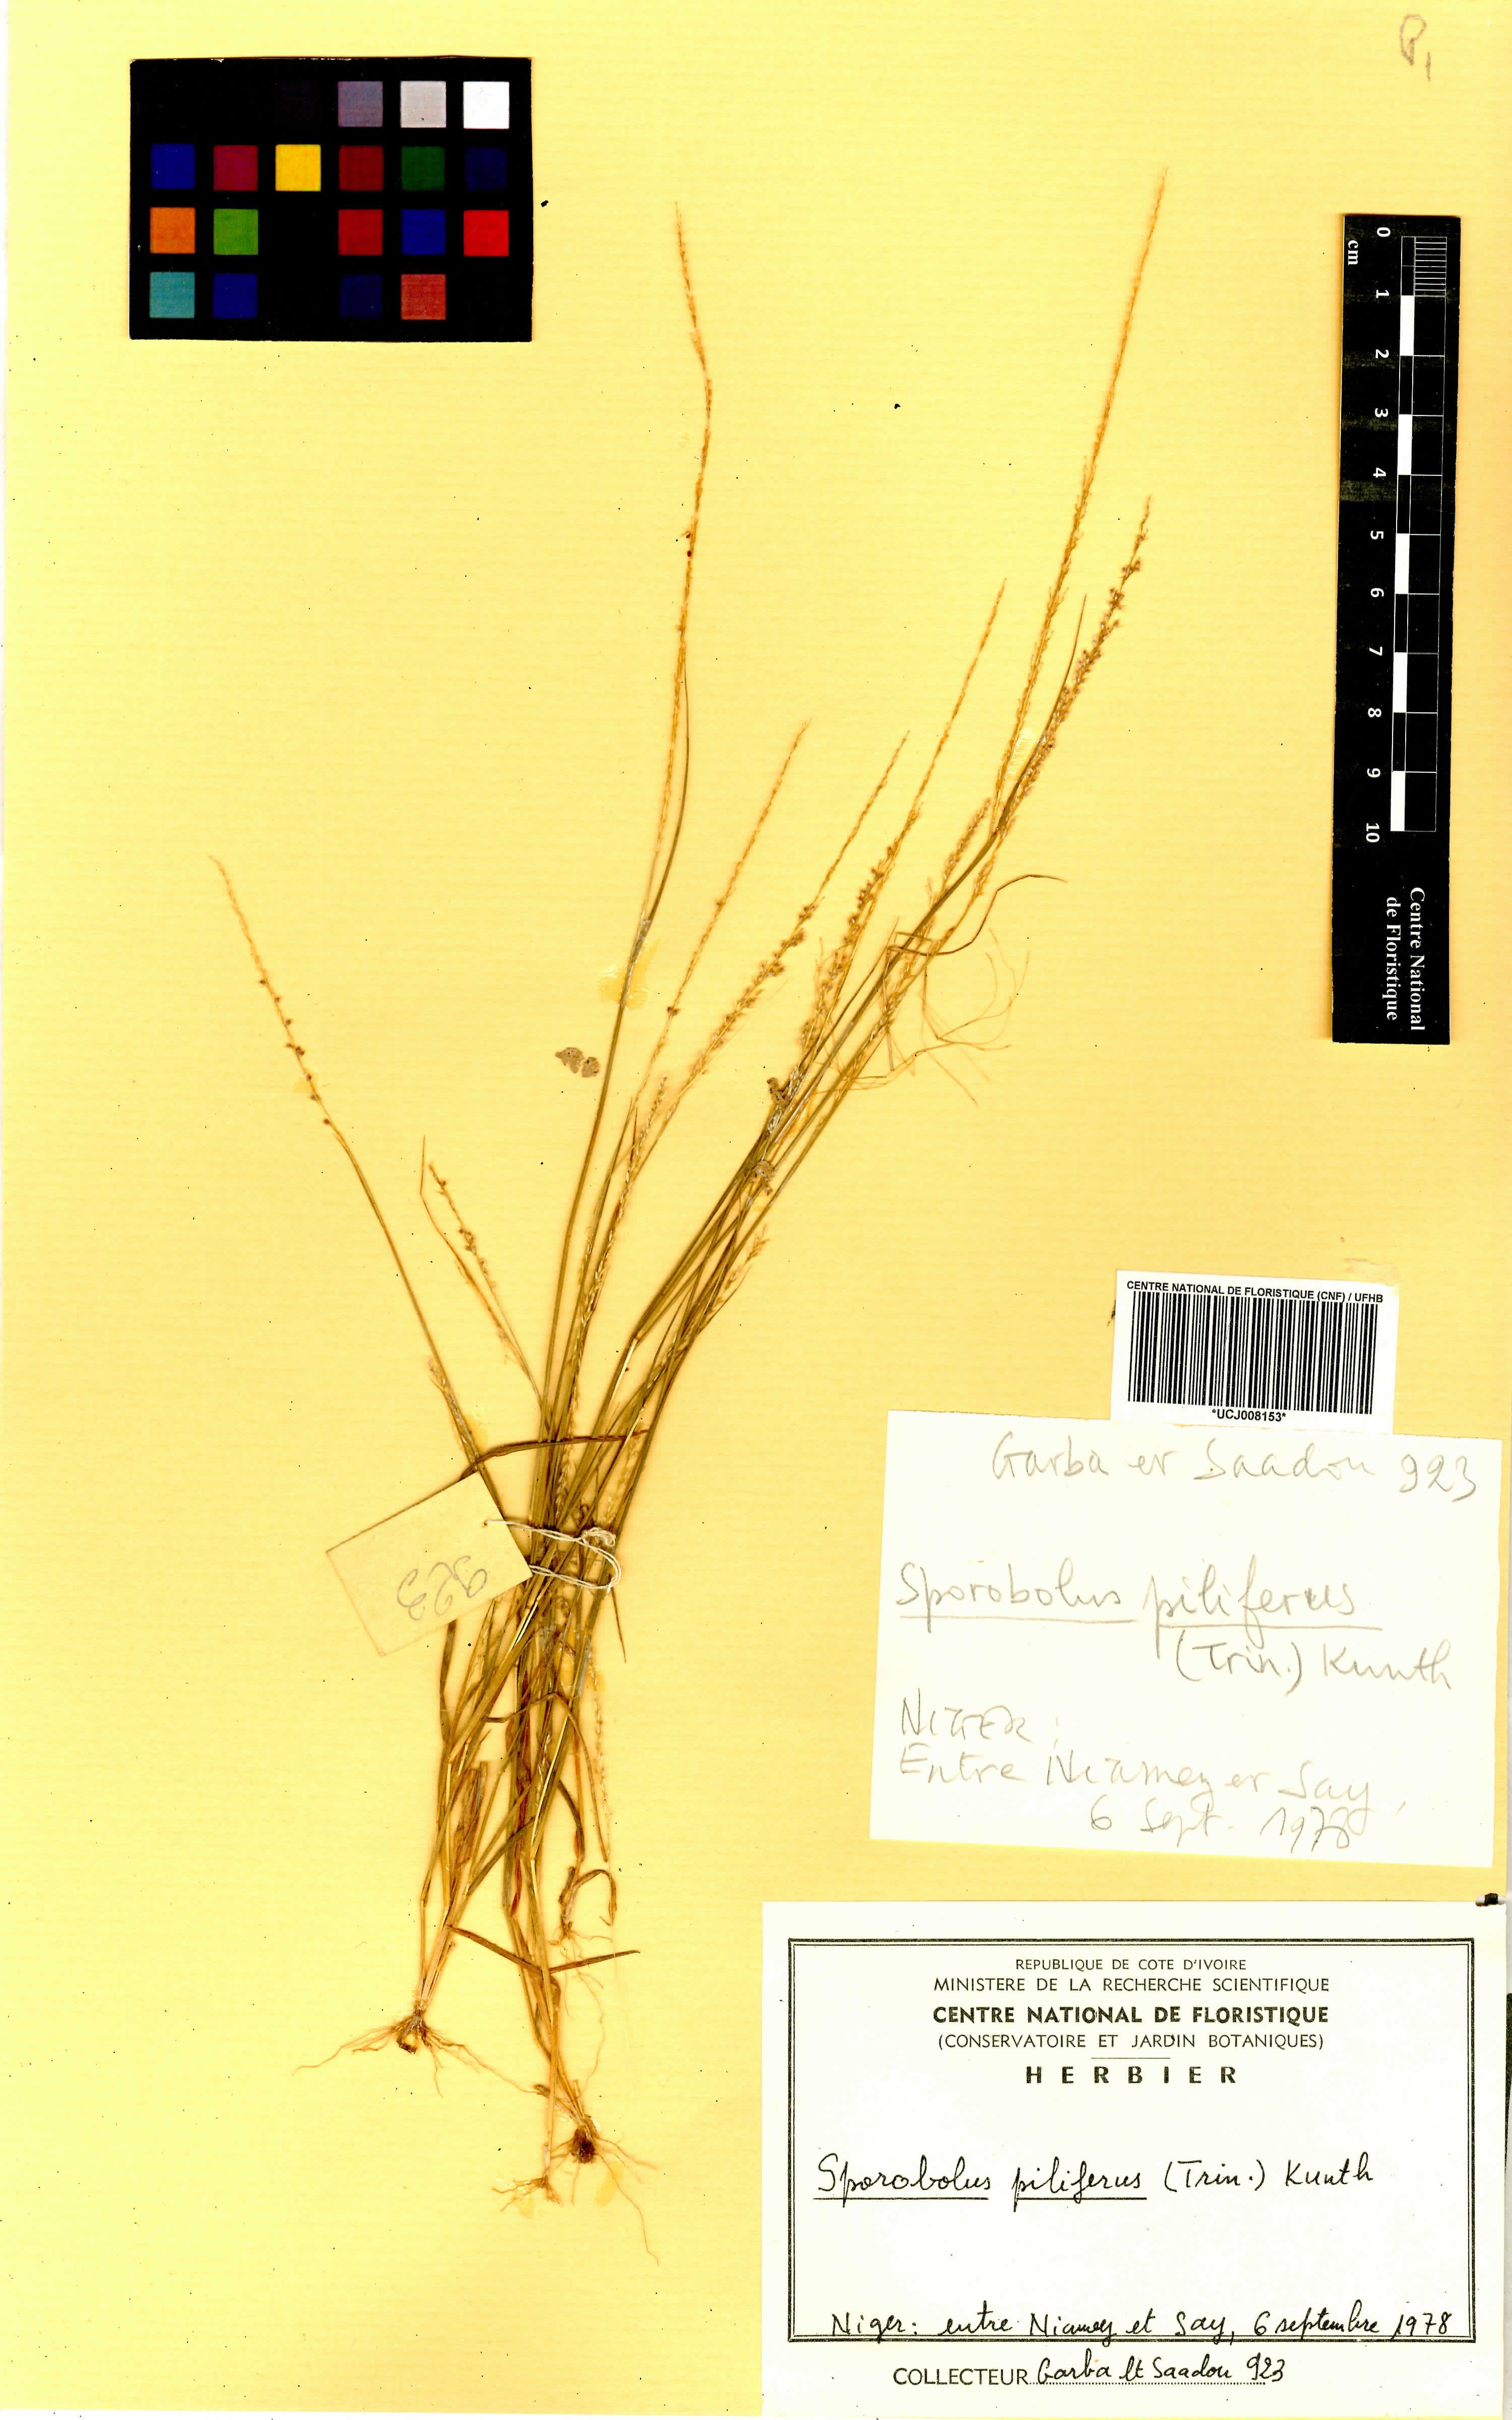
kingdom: Plantae
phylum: Tracheophyta
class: Liliopsida
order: Poales
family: Poaceae
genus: Sporobolus
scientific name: Sporobolus pilifer
